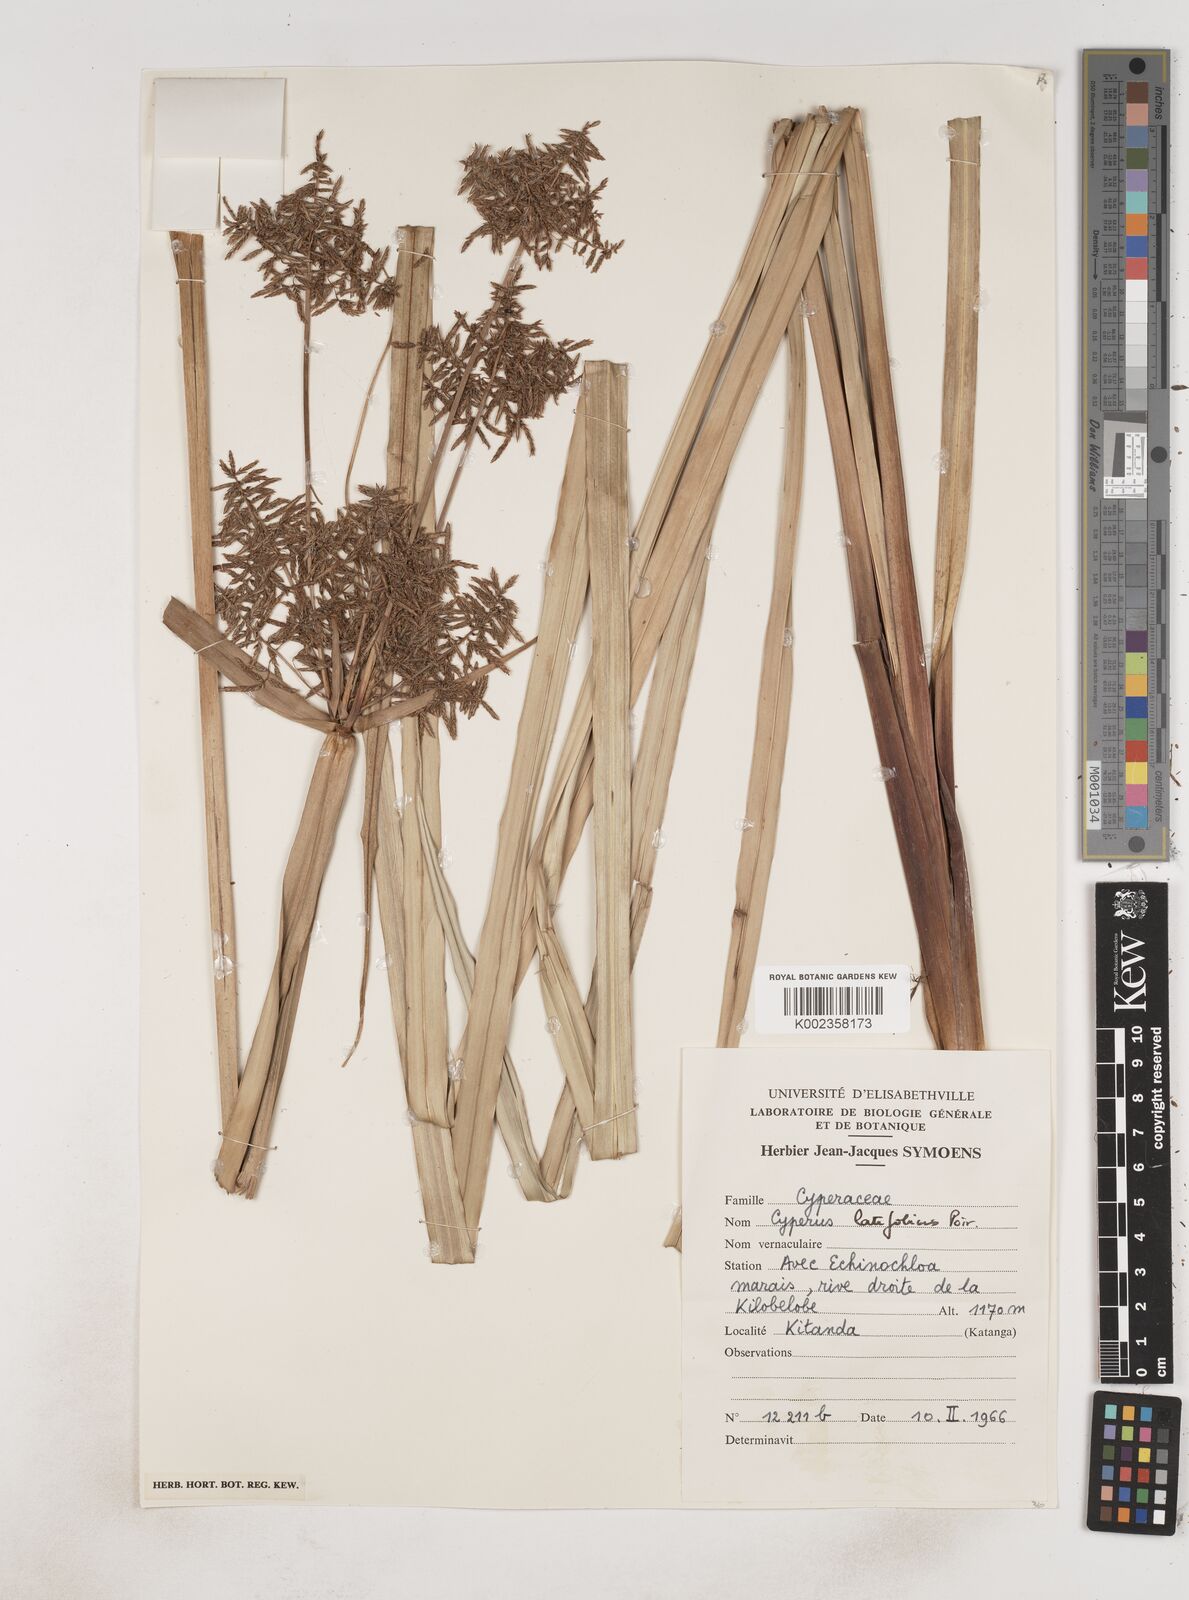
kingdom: Plantae
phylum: Tracheophyta
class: Liliopsida
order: Poales
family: Cyperaceae
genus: Cyperus
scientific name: Cyperus latifolius
